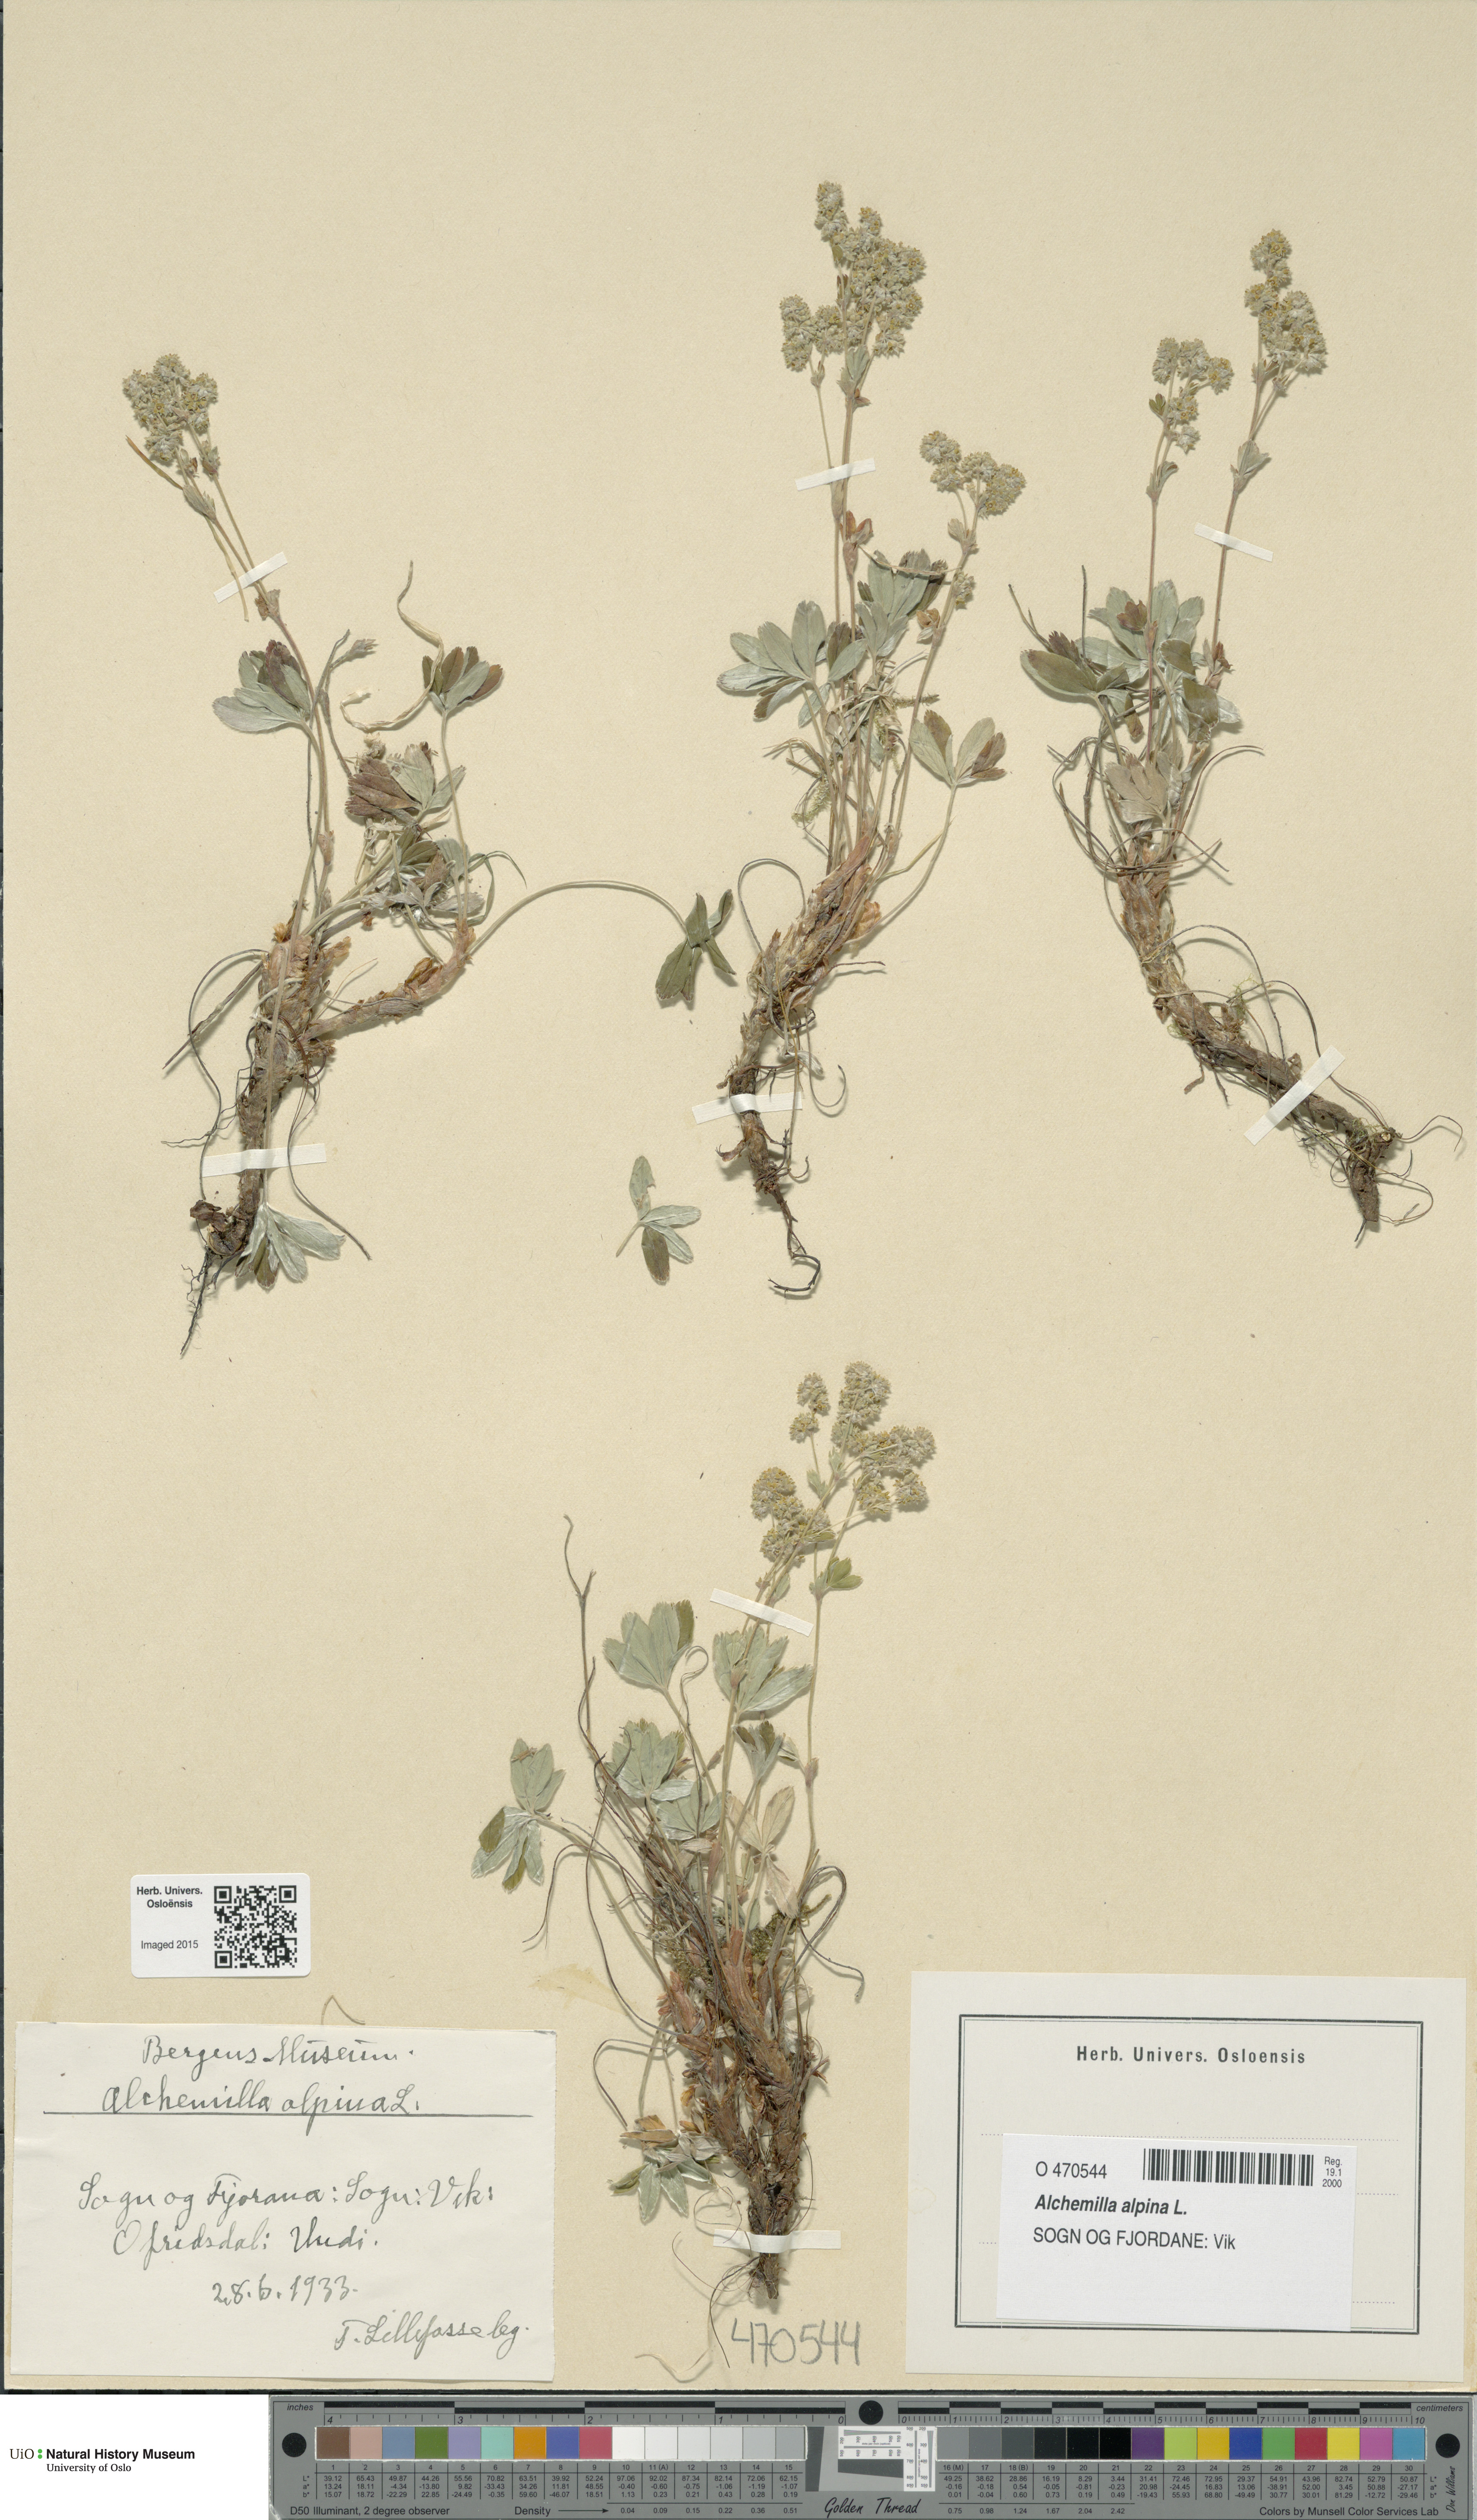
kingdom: Plantae
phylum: Tracheophyta
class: Magnoliopsida
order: Rosales
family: Rosaceae
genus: Alchemilla
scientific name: Alchemilla alpina
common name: Alpine lady's-mantle
